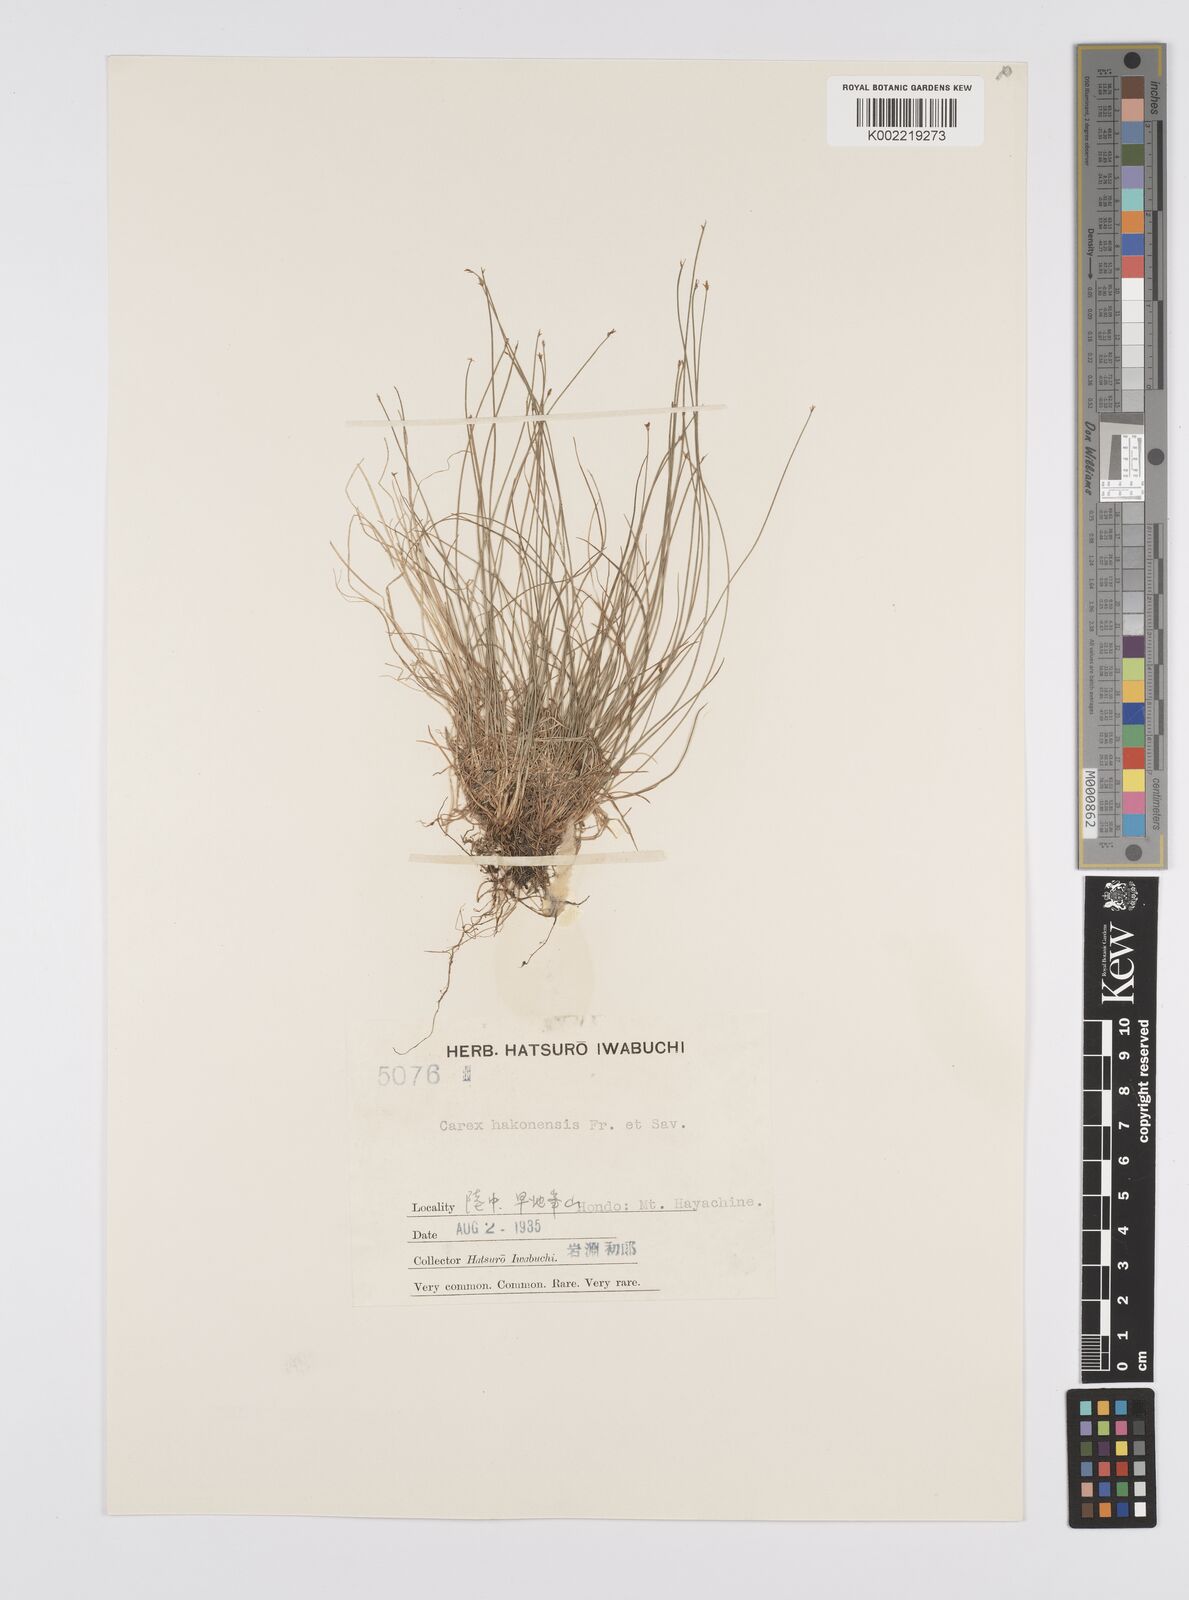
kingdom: Plantae
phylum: Tracheophyta
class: Liliopsida
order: Poales
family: Cyperaceae
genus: Carex
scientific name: Carex onoei
